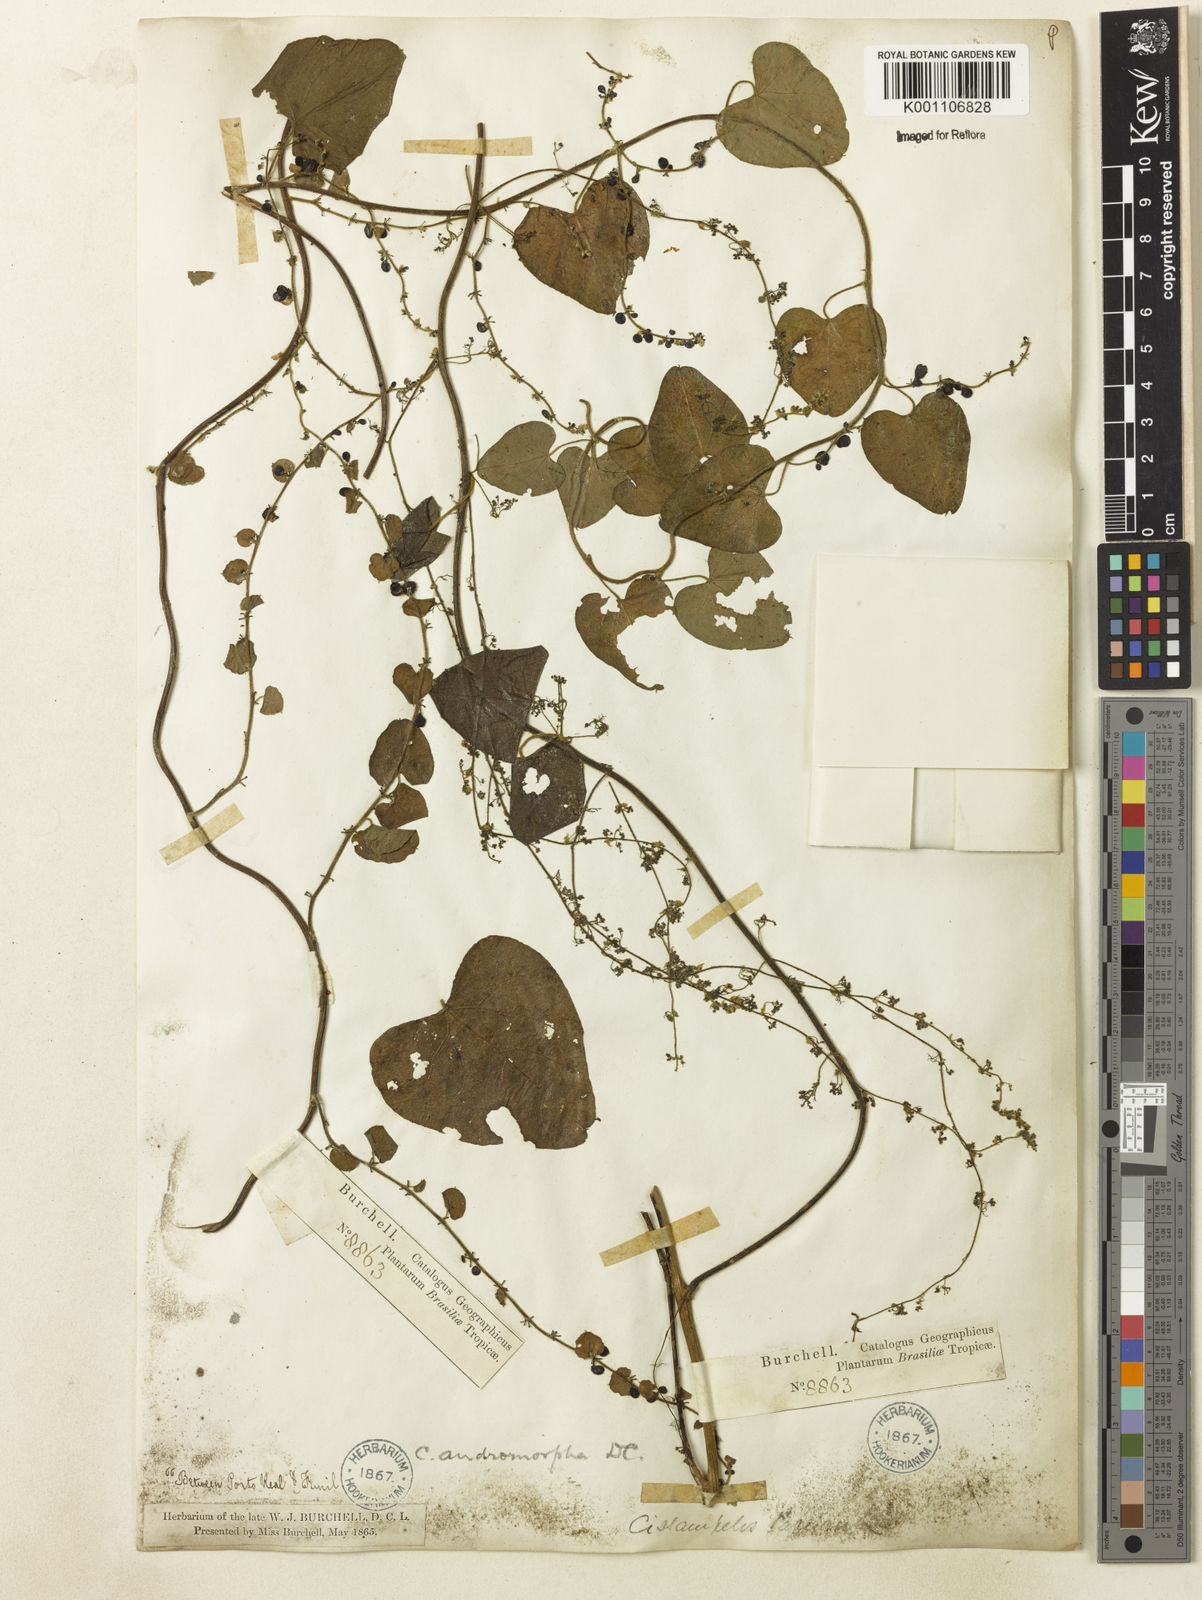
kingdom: Plantae
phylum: Tracheophyta
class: Magnoliopsida
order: Ranunculales
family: Menispermaceae
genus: Cissampelos
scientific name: Cissampelos andromorpha
